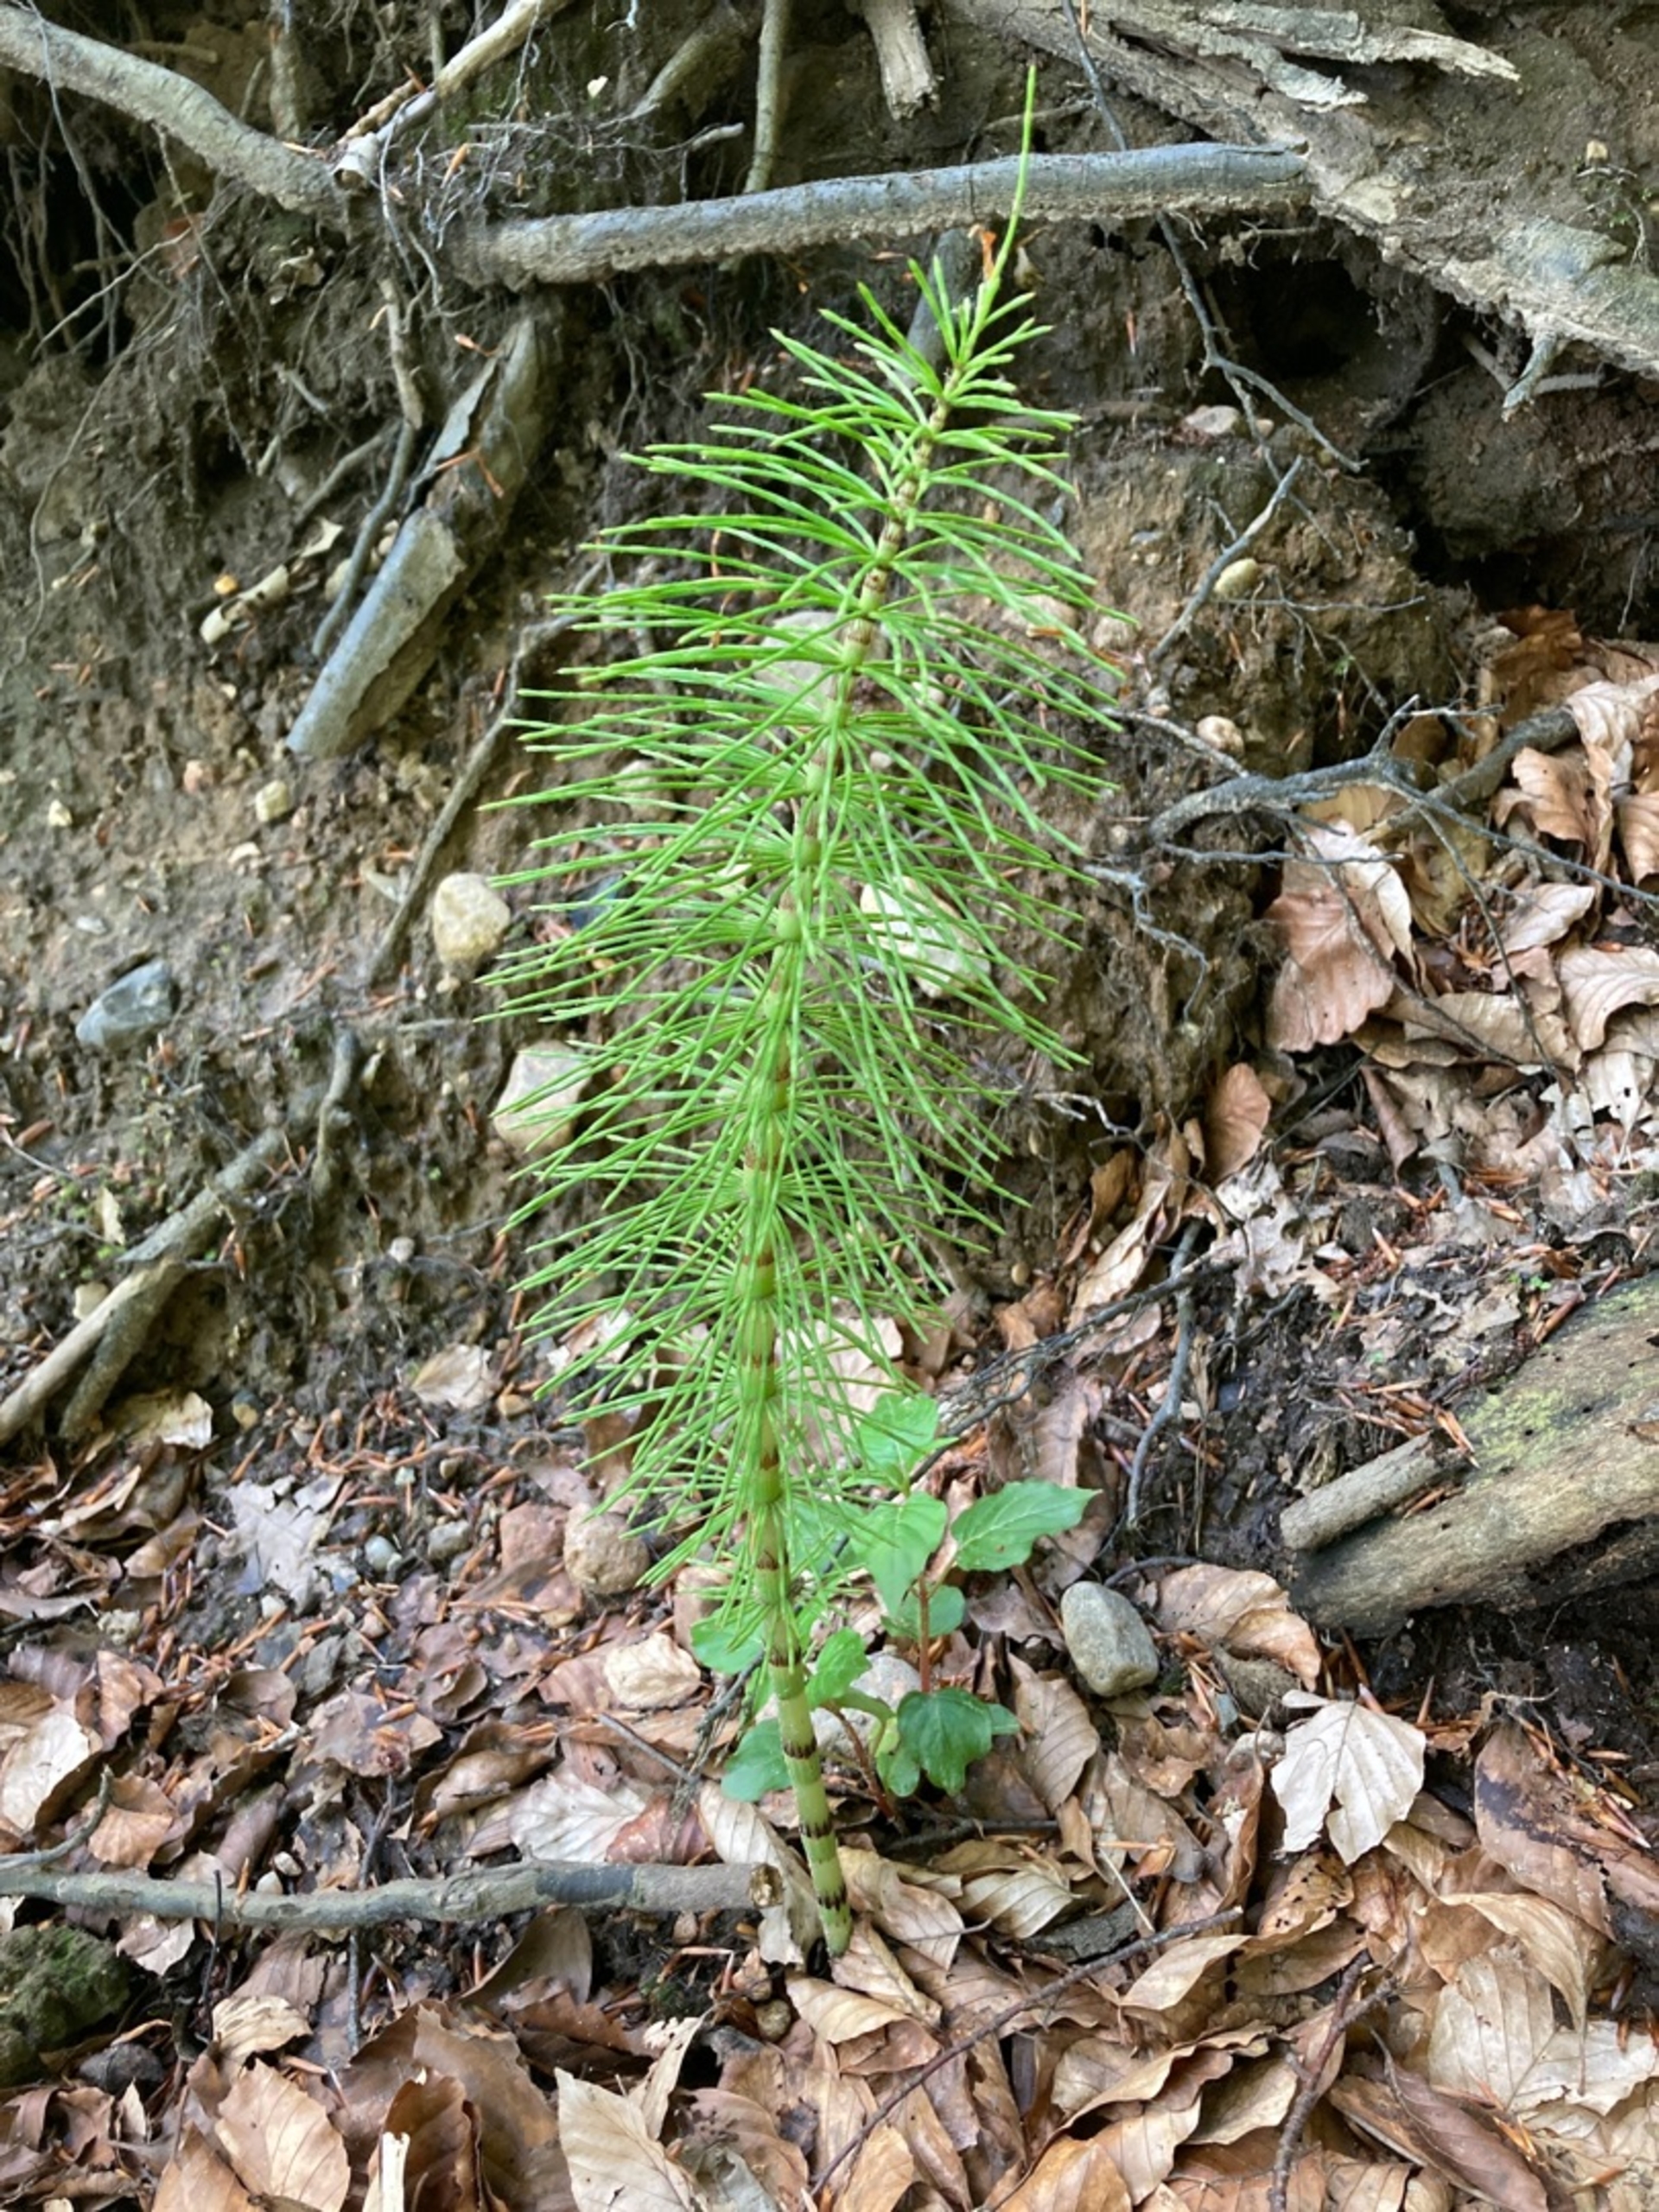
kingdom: Plantae
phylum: Tracheophyta
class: Polypodiopsida
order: Equisetales
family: Equisetaceae
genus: Equisetum
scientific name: Equisetum telmateia
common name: Elfenbens-padderok
